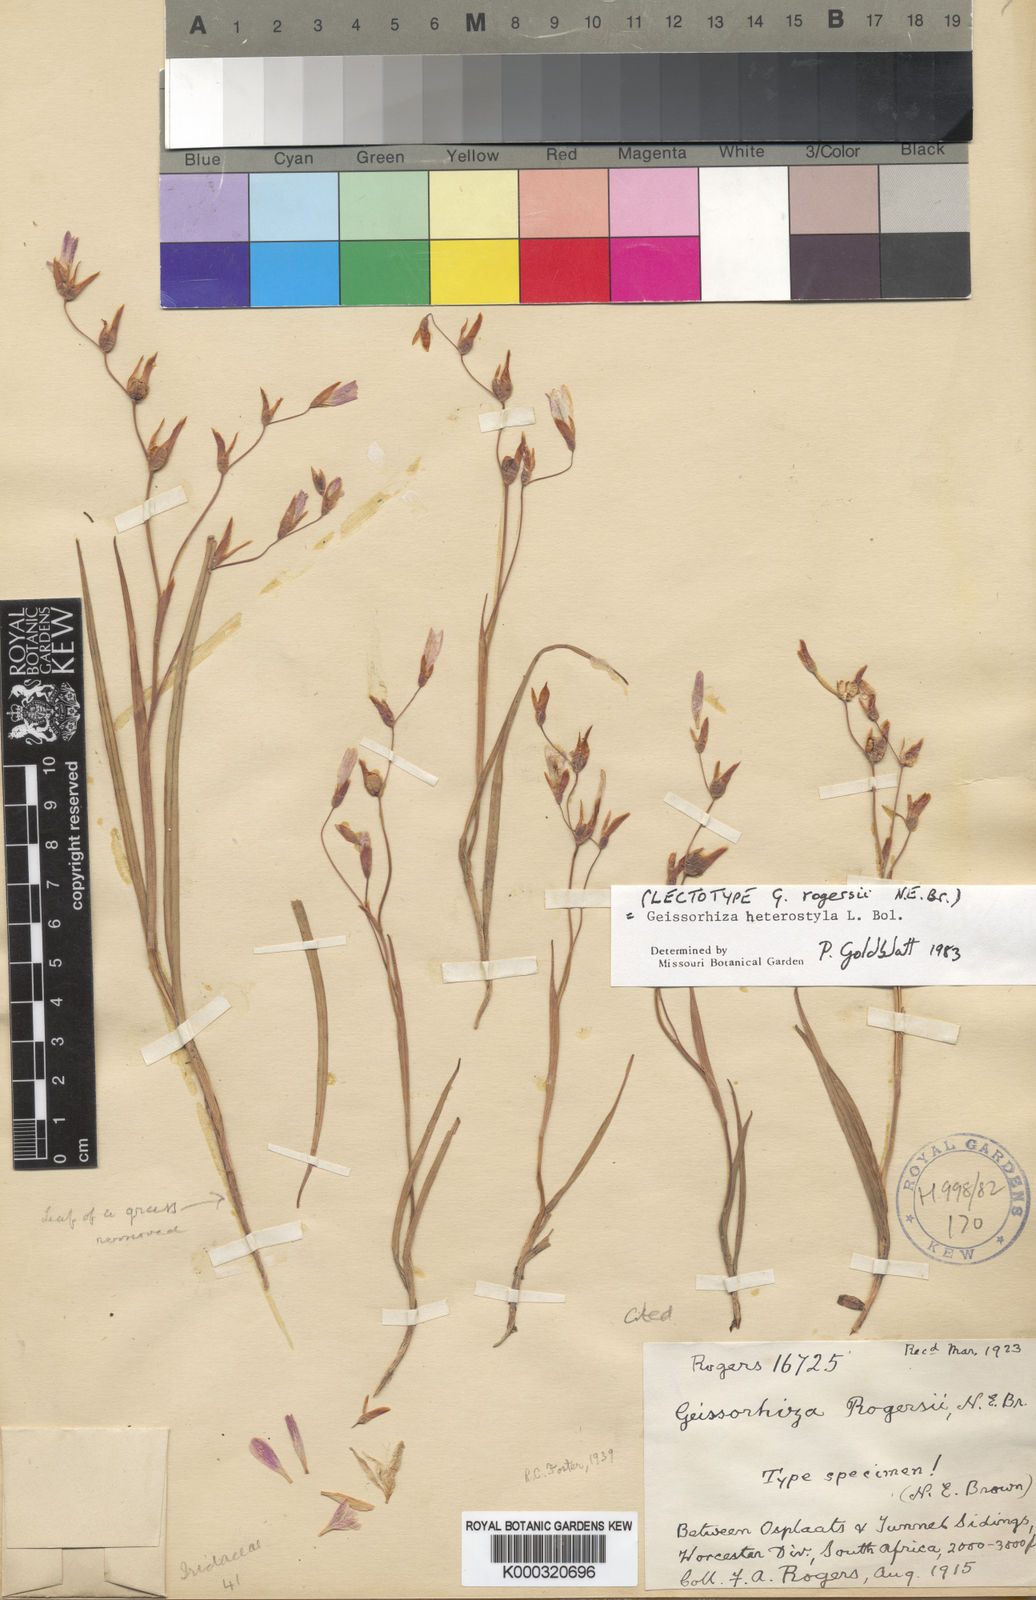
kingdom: Plantae
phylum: Tracheophyta
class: Liliopsida
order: Asparagales
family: Iridaceae
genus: Geissorhiza
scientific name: Geissorhiza heterostyla
